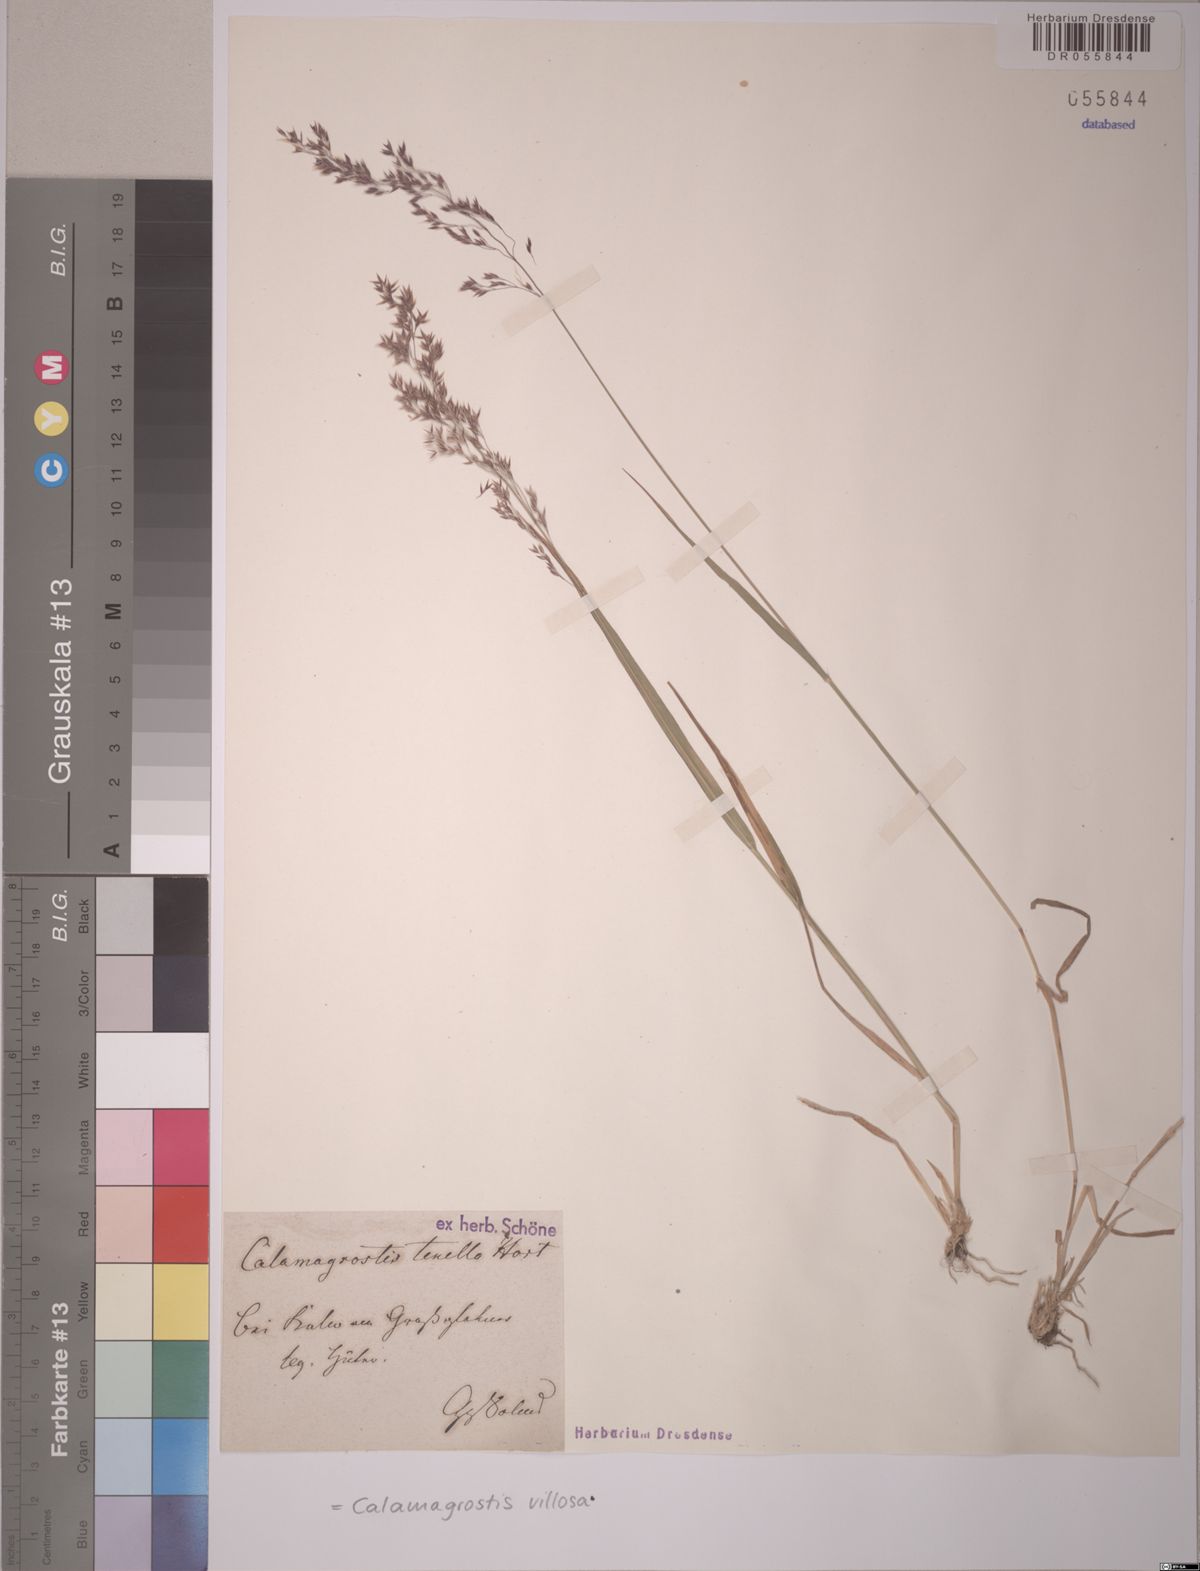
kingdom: Plantae
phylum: Tracheophyta
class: Liliopsida
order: Poales
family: Poaceae
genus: Calamagrostis
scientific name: Calamagrostis villosa
